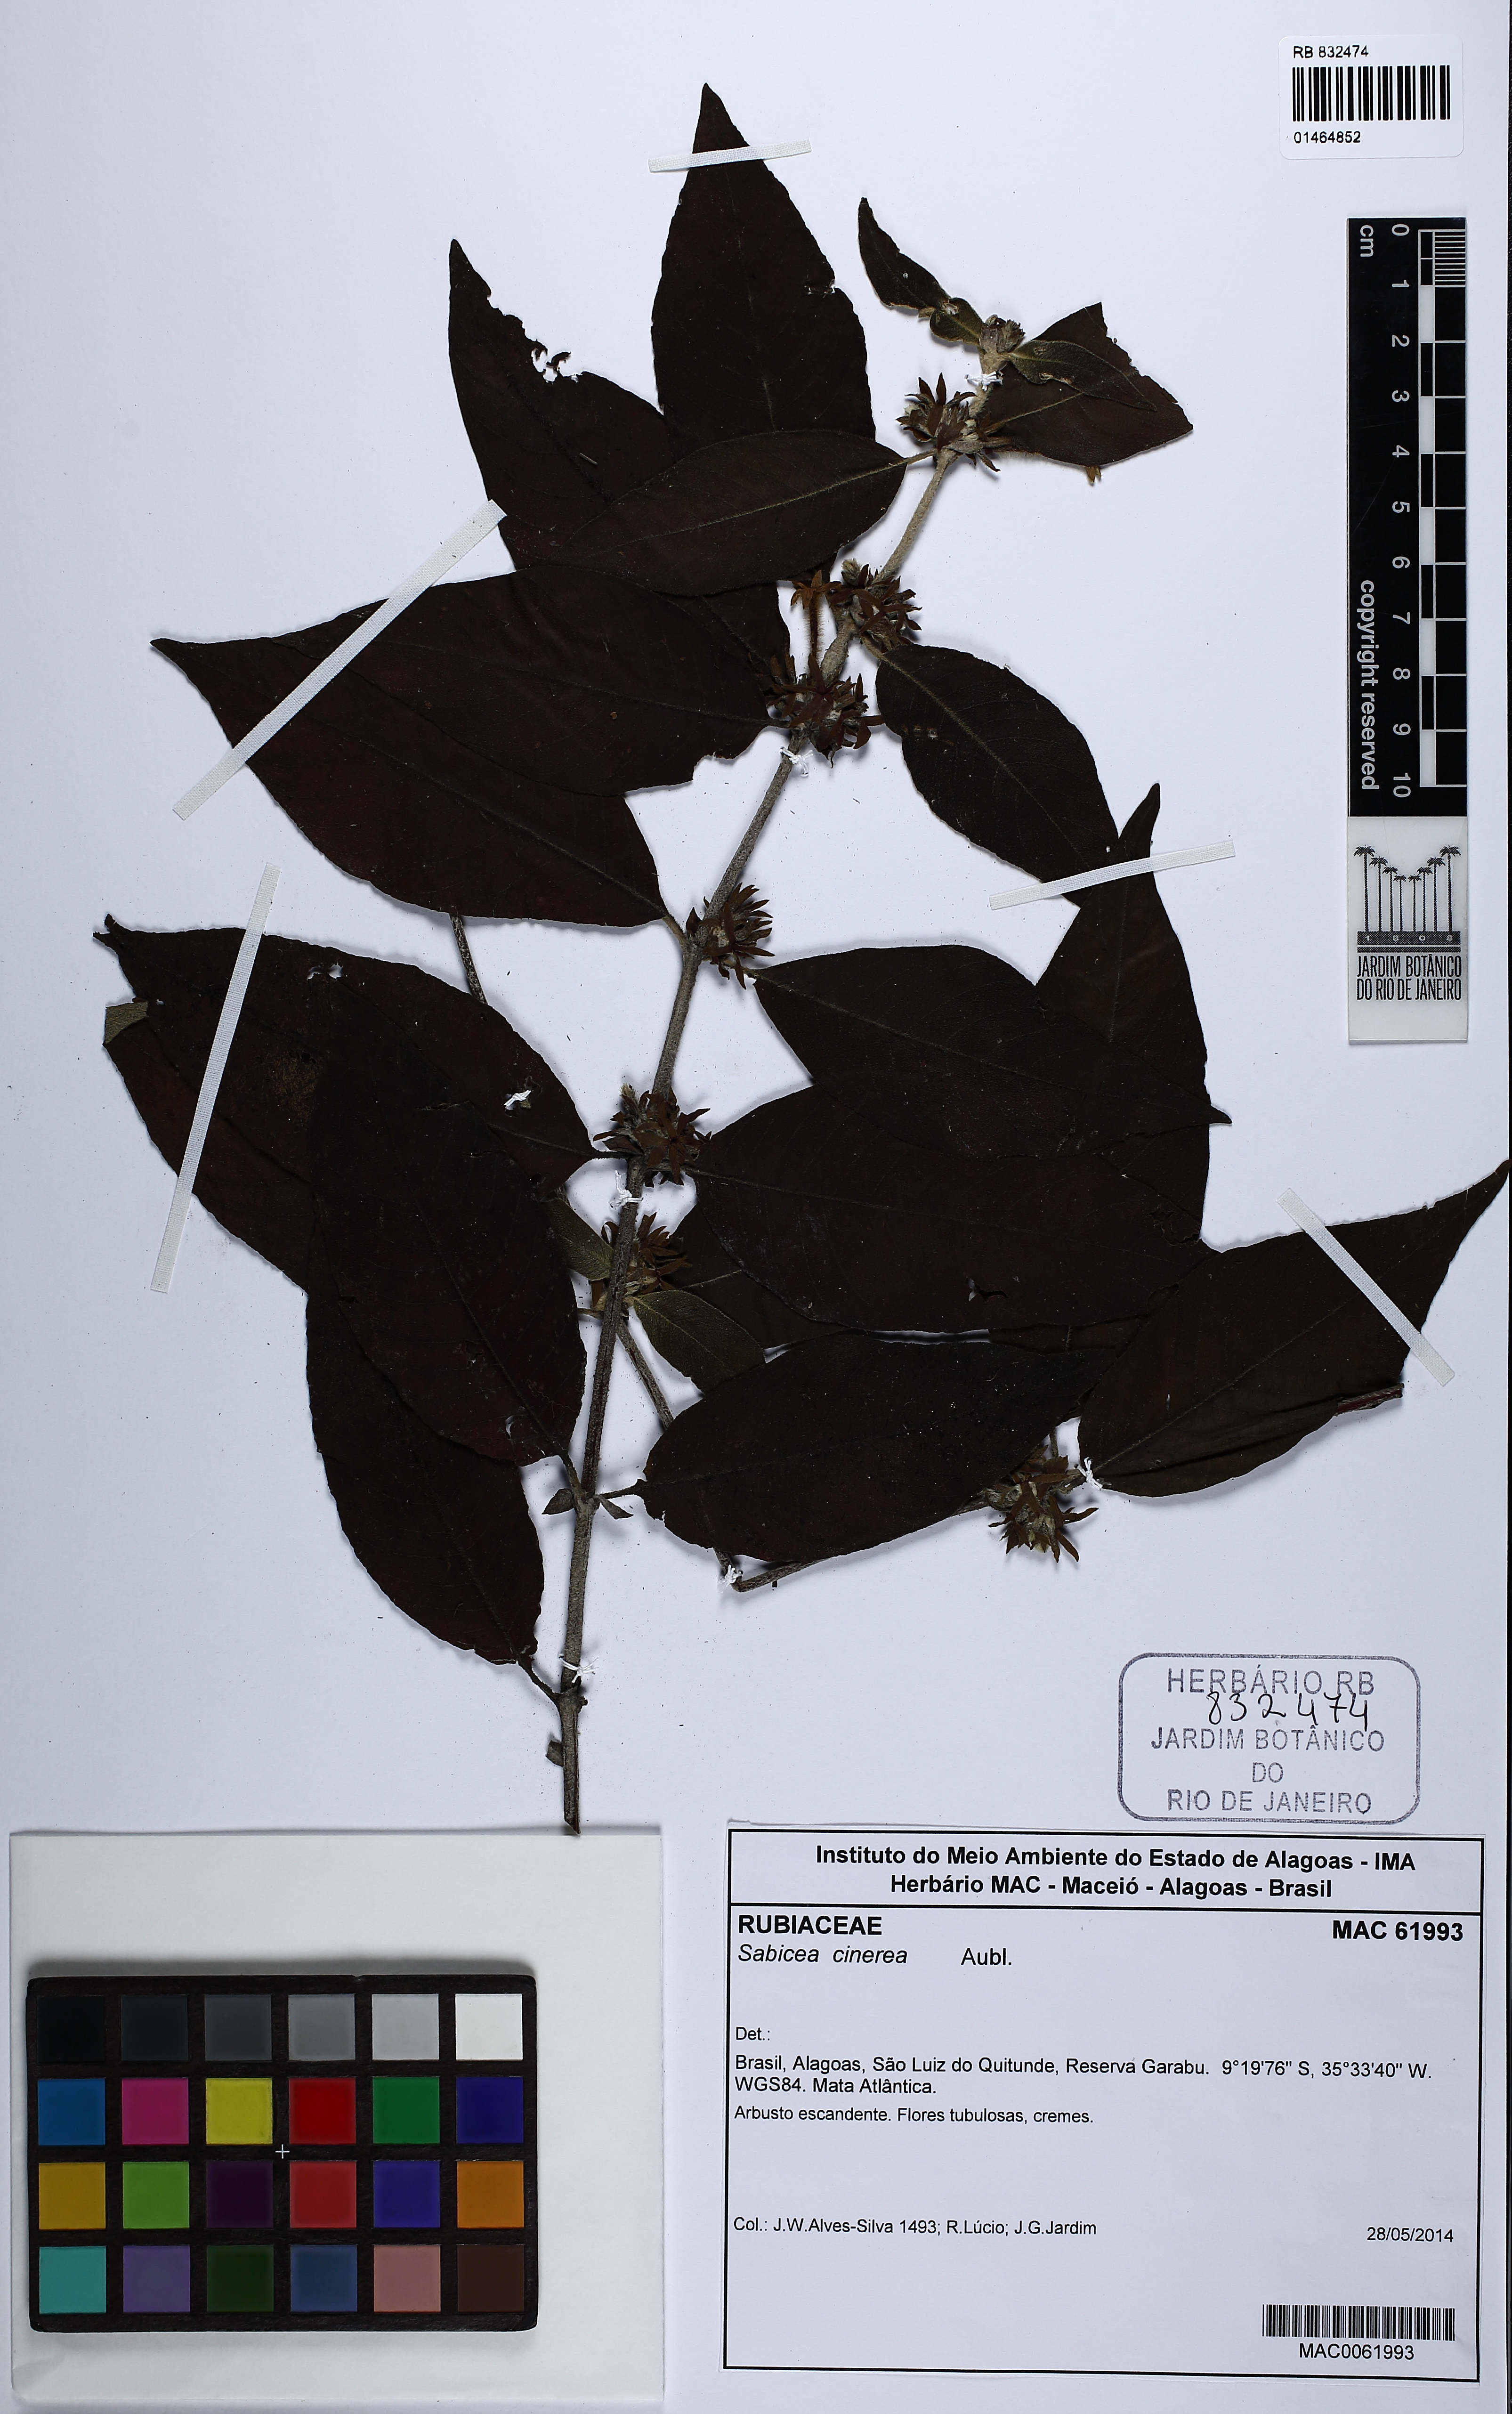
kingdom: Plantae
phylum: Tracheophyta
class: Magnoliopsida
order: Gentianales
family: Rubiaceae
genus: Sabicea
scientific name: Sabicea cinerea
